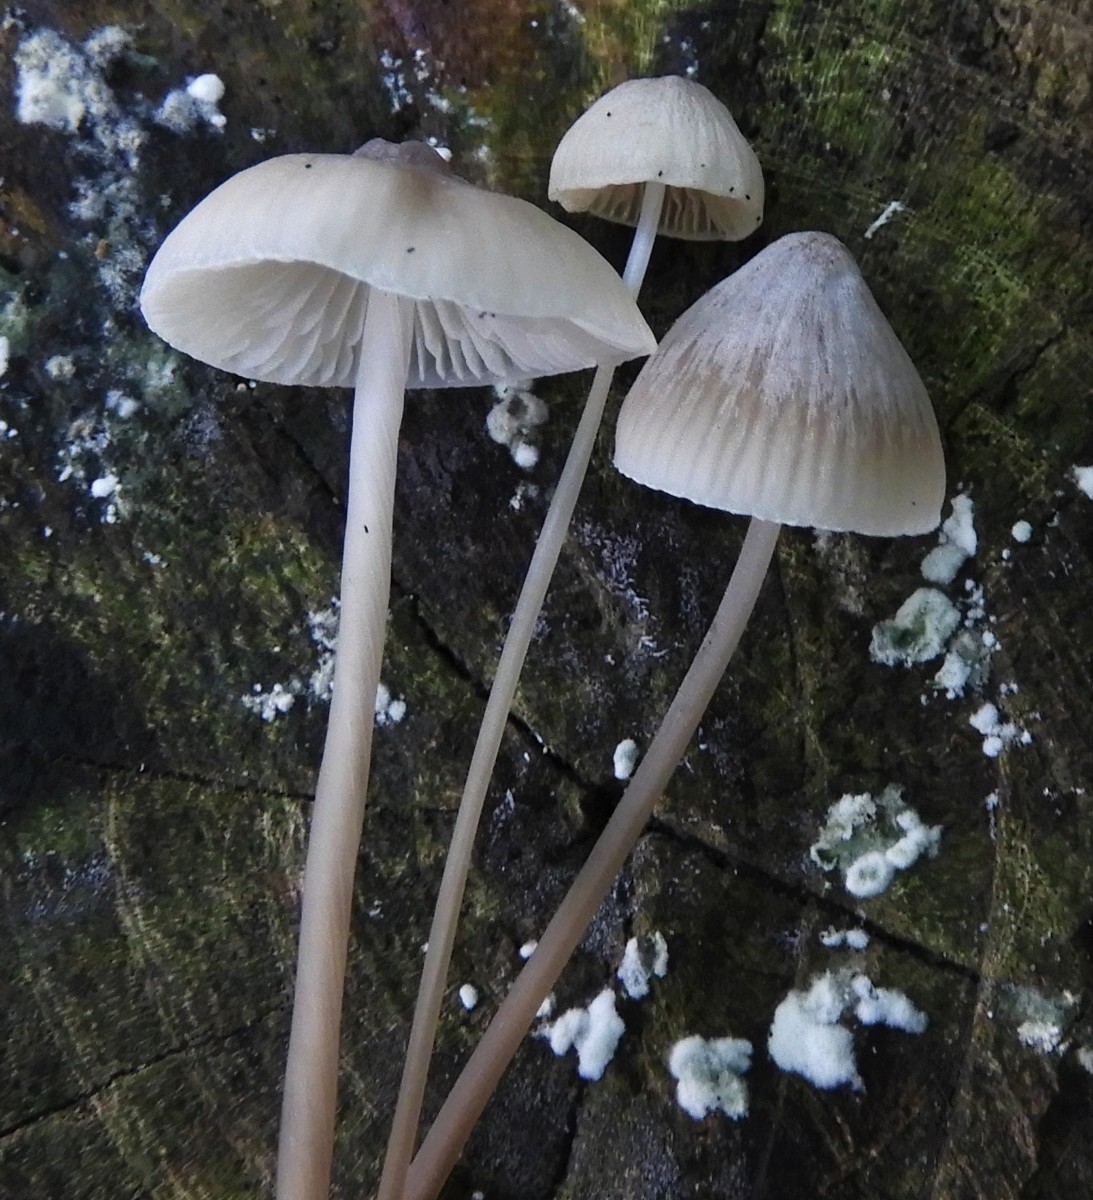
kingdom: Fungi
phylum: Basidiomycota
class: Agaricomycetes
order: Agaricales
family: Mycenaceae
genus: Mycena
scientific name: Mycena vitilis
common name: blankstokket huesvamp
